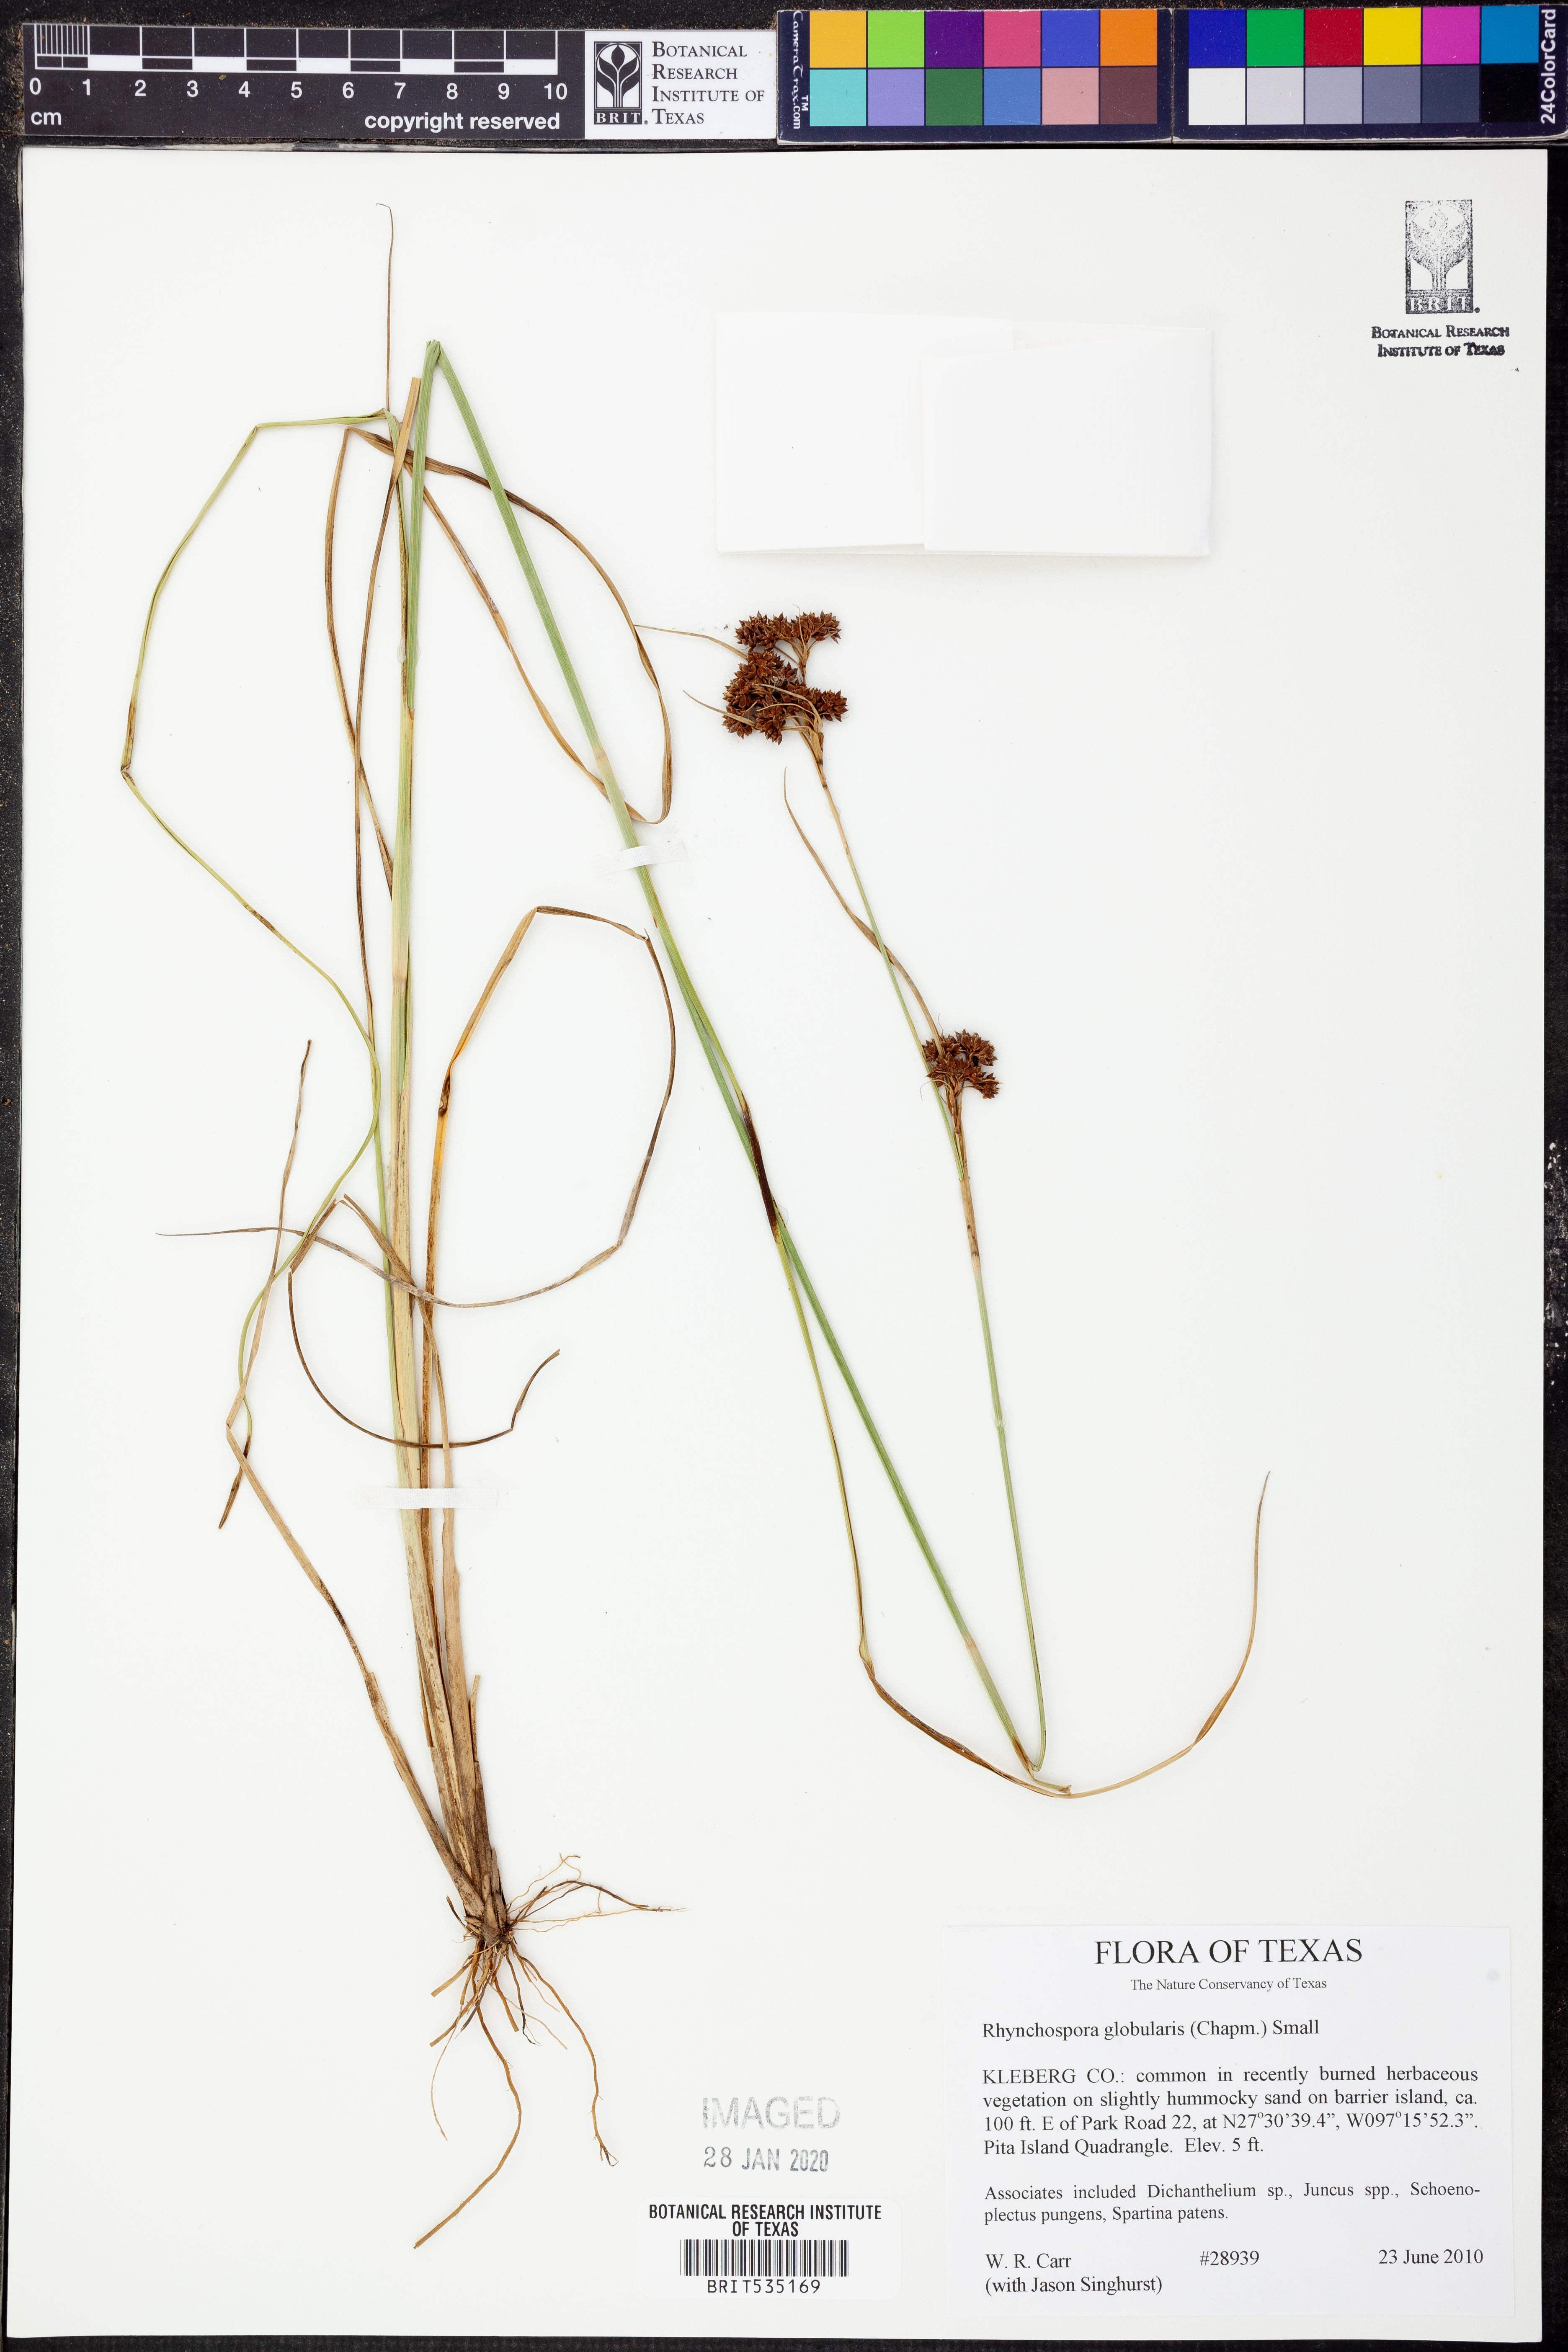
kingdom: Plantae
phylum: Tracheophyta
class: Liliopsida
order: Poales
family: Cyperaceae
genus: Rhynchospora
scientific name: Rhynchospora globularis
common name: Globe beaksedge
